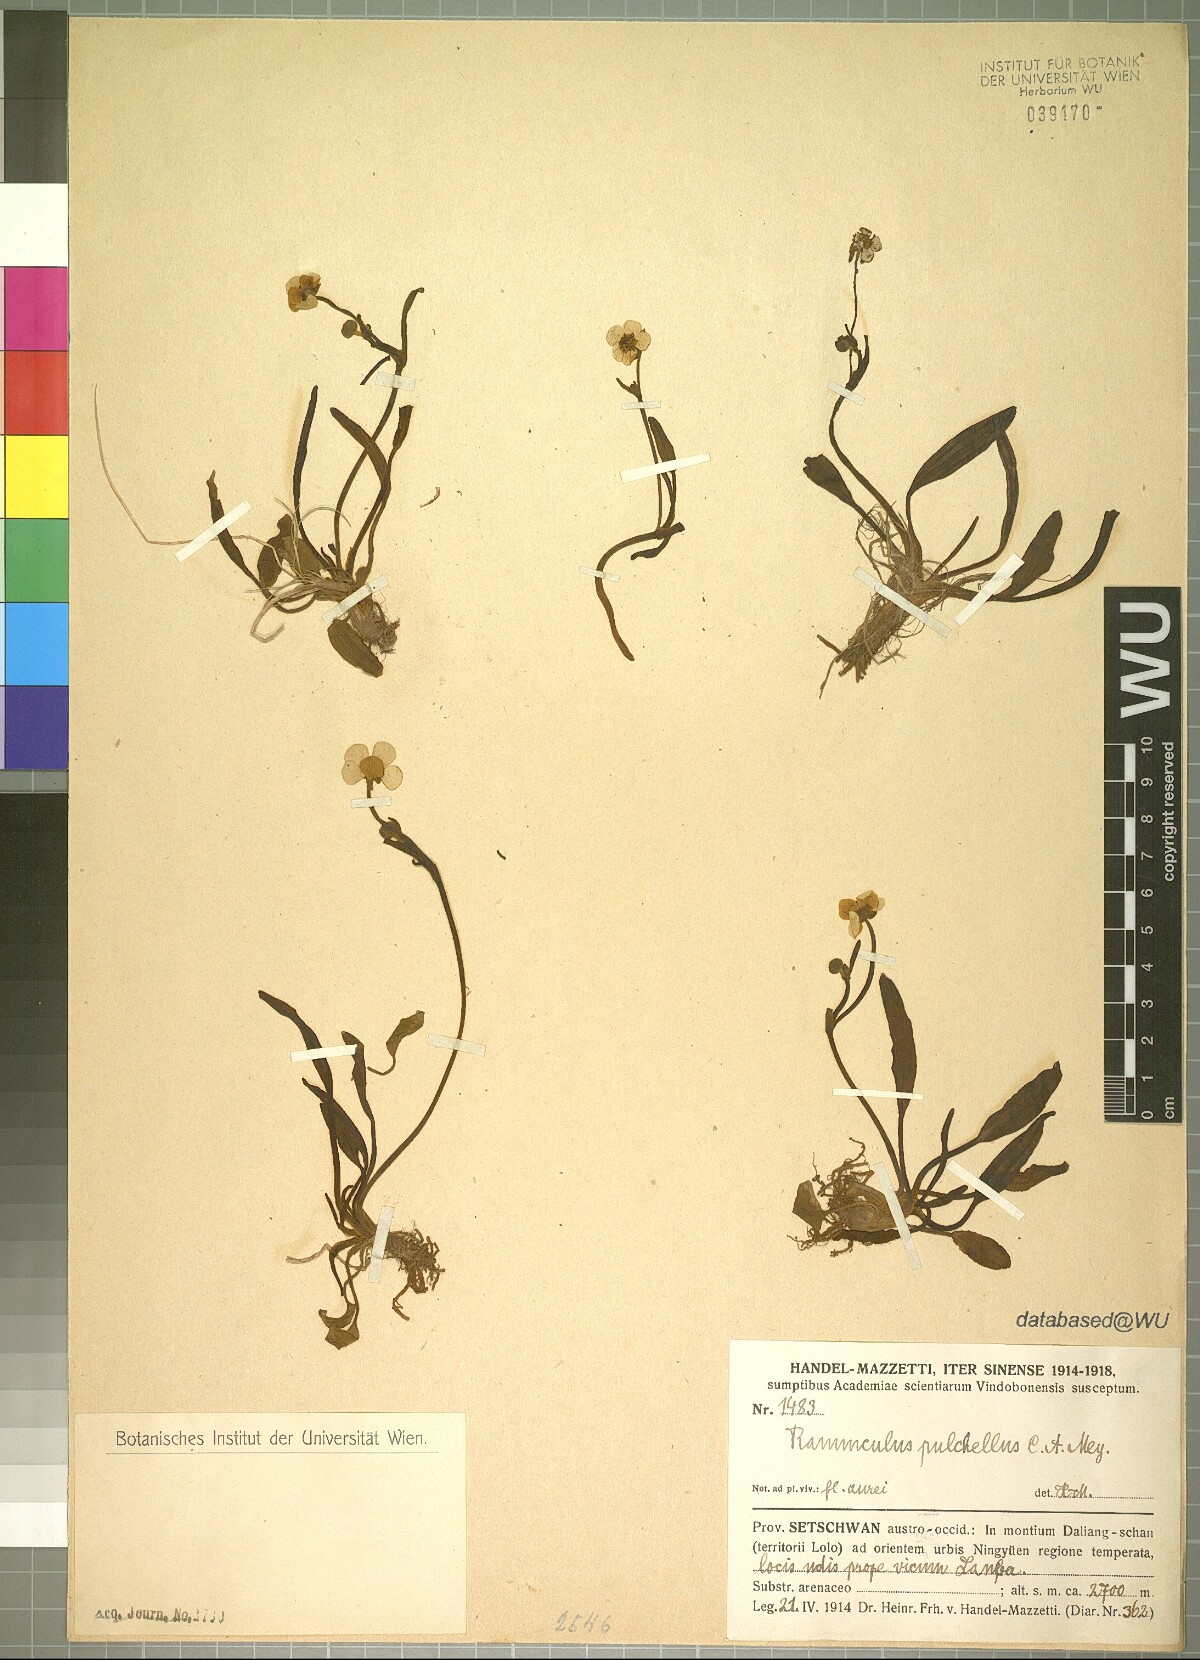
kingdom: Plantae
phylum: Tracheophyta
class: Magnoliopsida
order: Ranunculales
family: Ranunculaceae
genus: Ranunculus
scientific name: Ranunculus pulchellus
